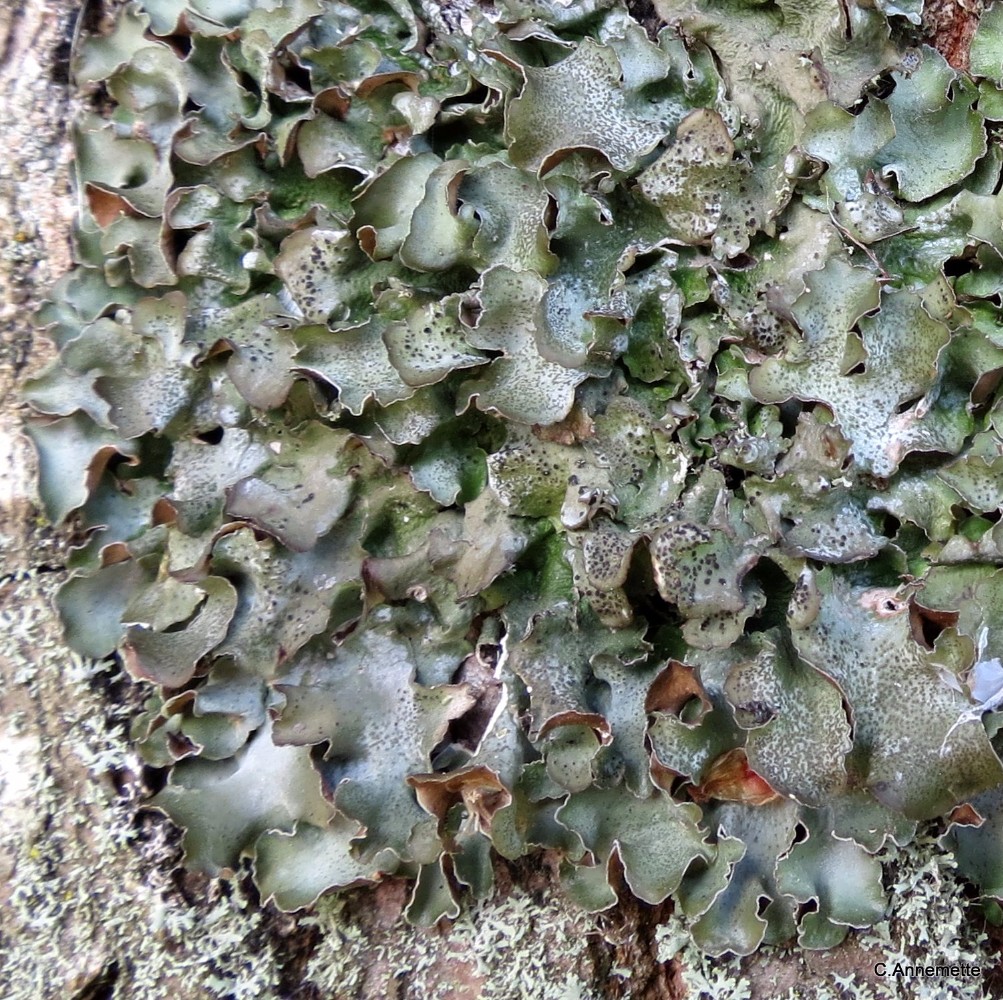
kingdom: Fungi
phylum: Ascomycota
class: Lecanoromycetes
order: Lecanorales
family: Parmeliaceae
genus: Pleurosticta
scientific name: Pleurosticta acetabulum
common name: stor skållav
